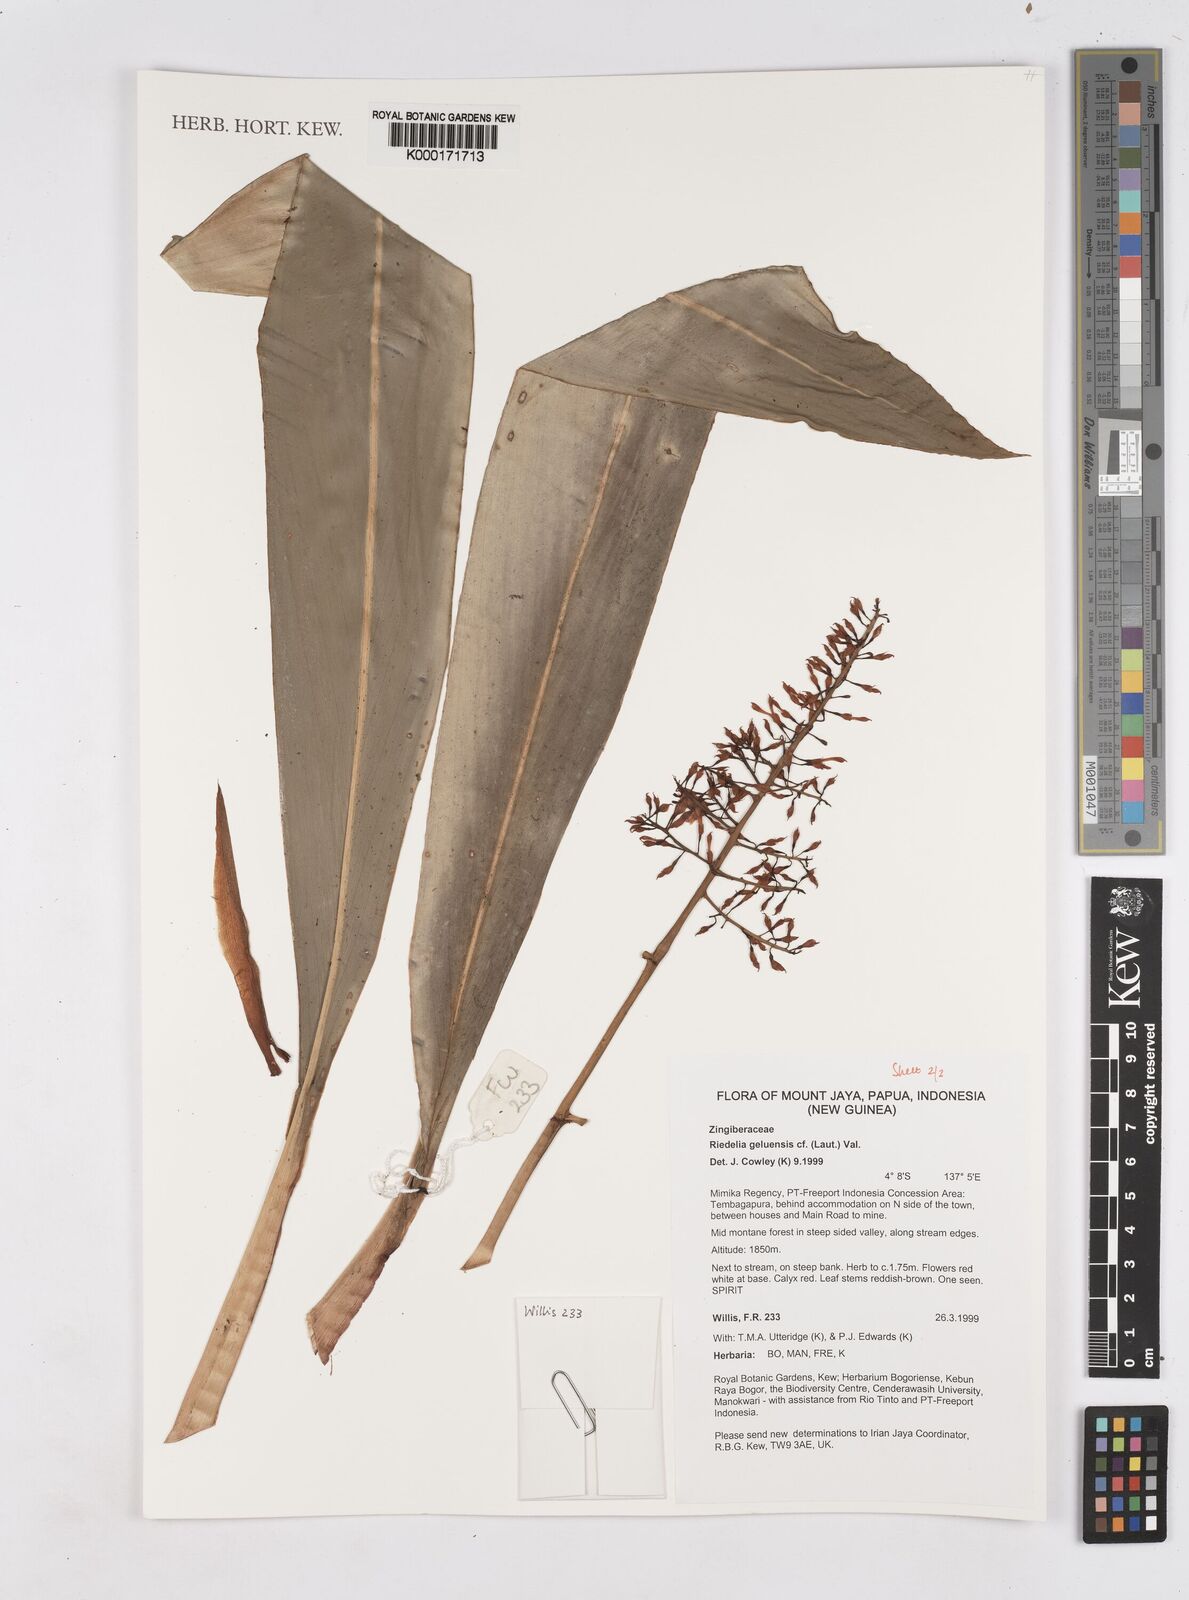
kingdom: Plantae
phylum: Tracheophyta
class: Liliopsida
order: Zingiberales
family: Zingiberaceae
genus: Riedelia
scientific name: Riedelia geluensis
